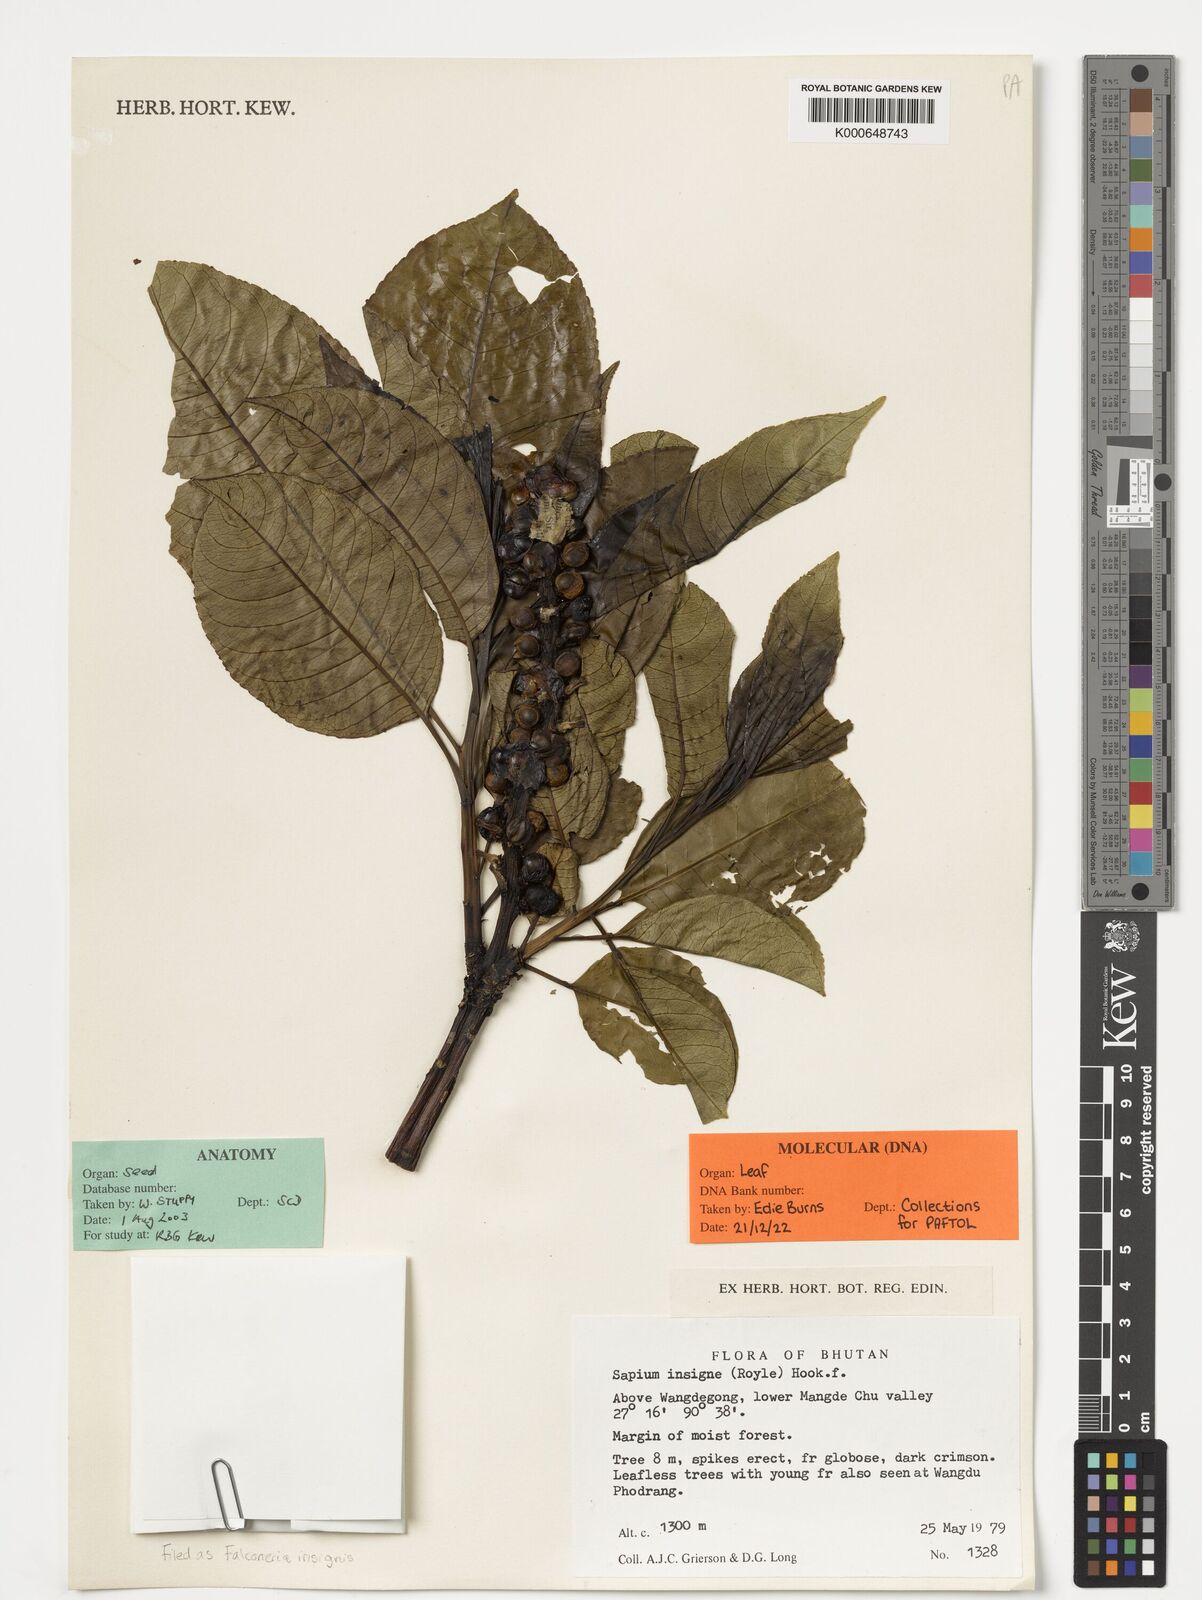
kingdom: Plantae
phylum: Tracheophyta
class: Magnoliopsida
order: Malpighiales
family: Euphorbiaceae
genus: Falconeria
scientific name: Falconeria insignis
